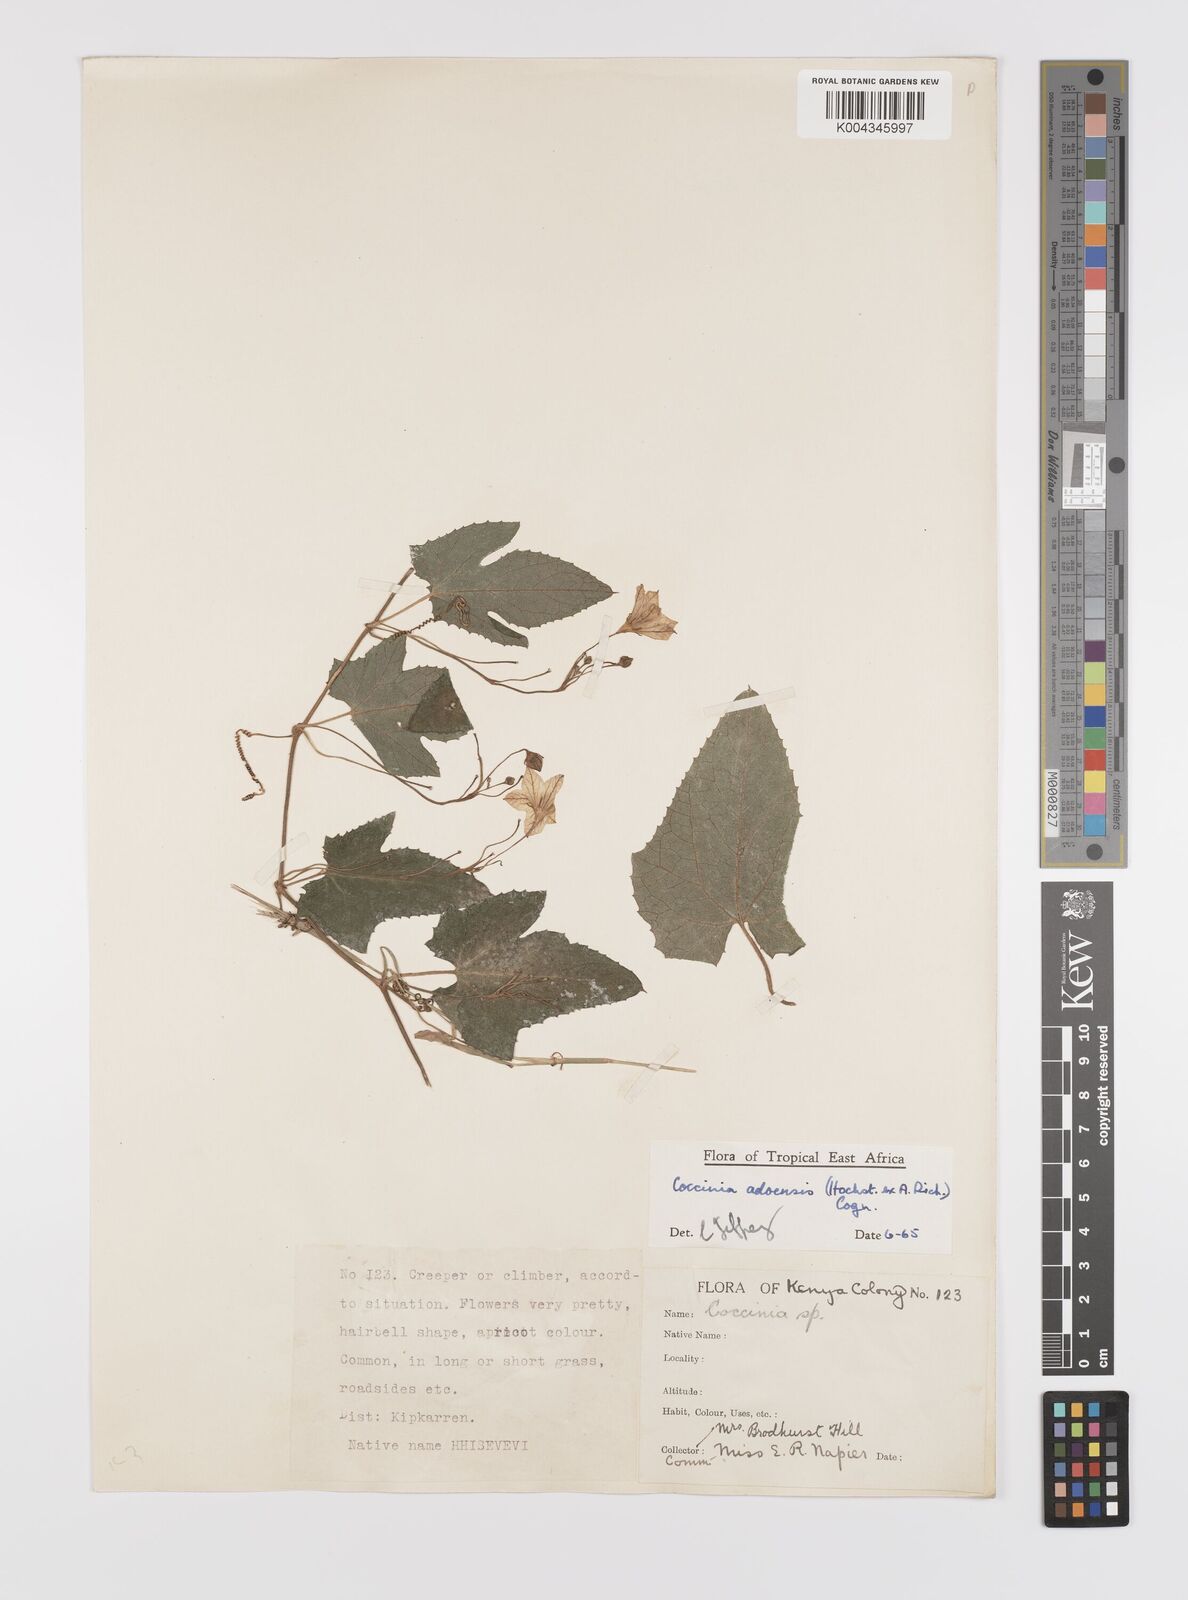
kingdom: Plantae
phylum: Tracheophyta
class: Magnoliopsida
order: Cucurbitales
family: Cucurbitaceae
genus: Coccinia
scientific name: Coccinia adoensis
